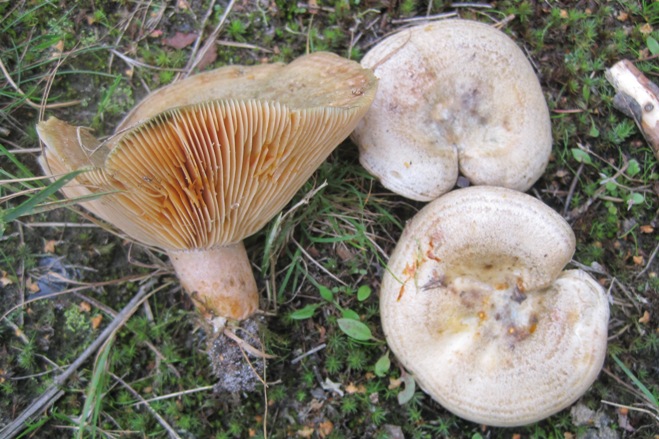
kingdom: Fungi
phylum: Basidiomycota
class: Agaricomycetes
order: Russulales
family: Russulaceae
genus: Lactarius
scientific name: Lactarius quieticolor
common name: tvefarvet mælkehat
